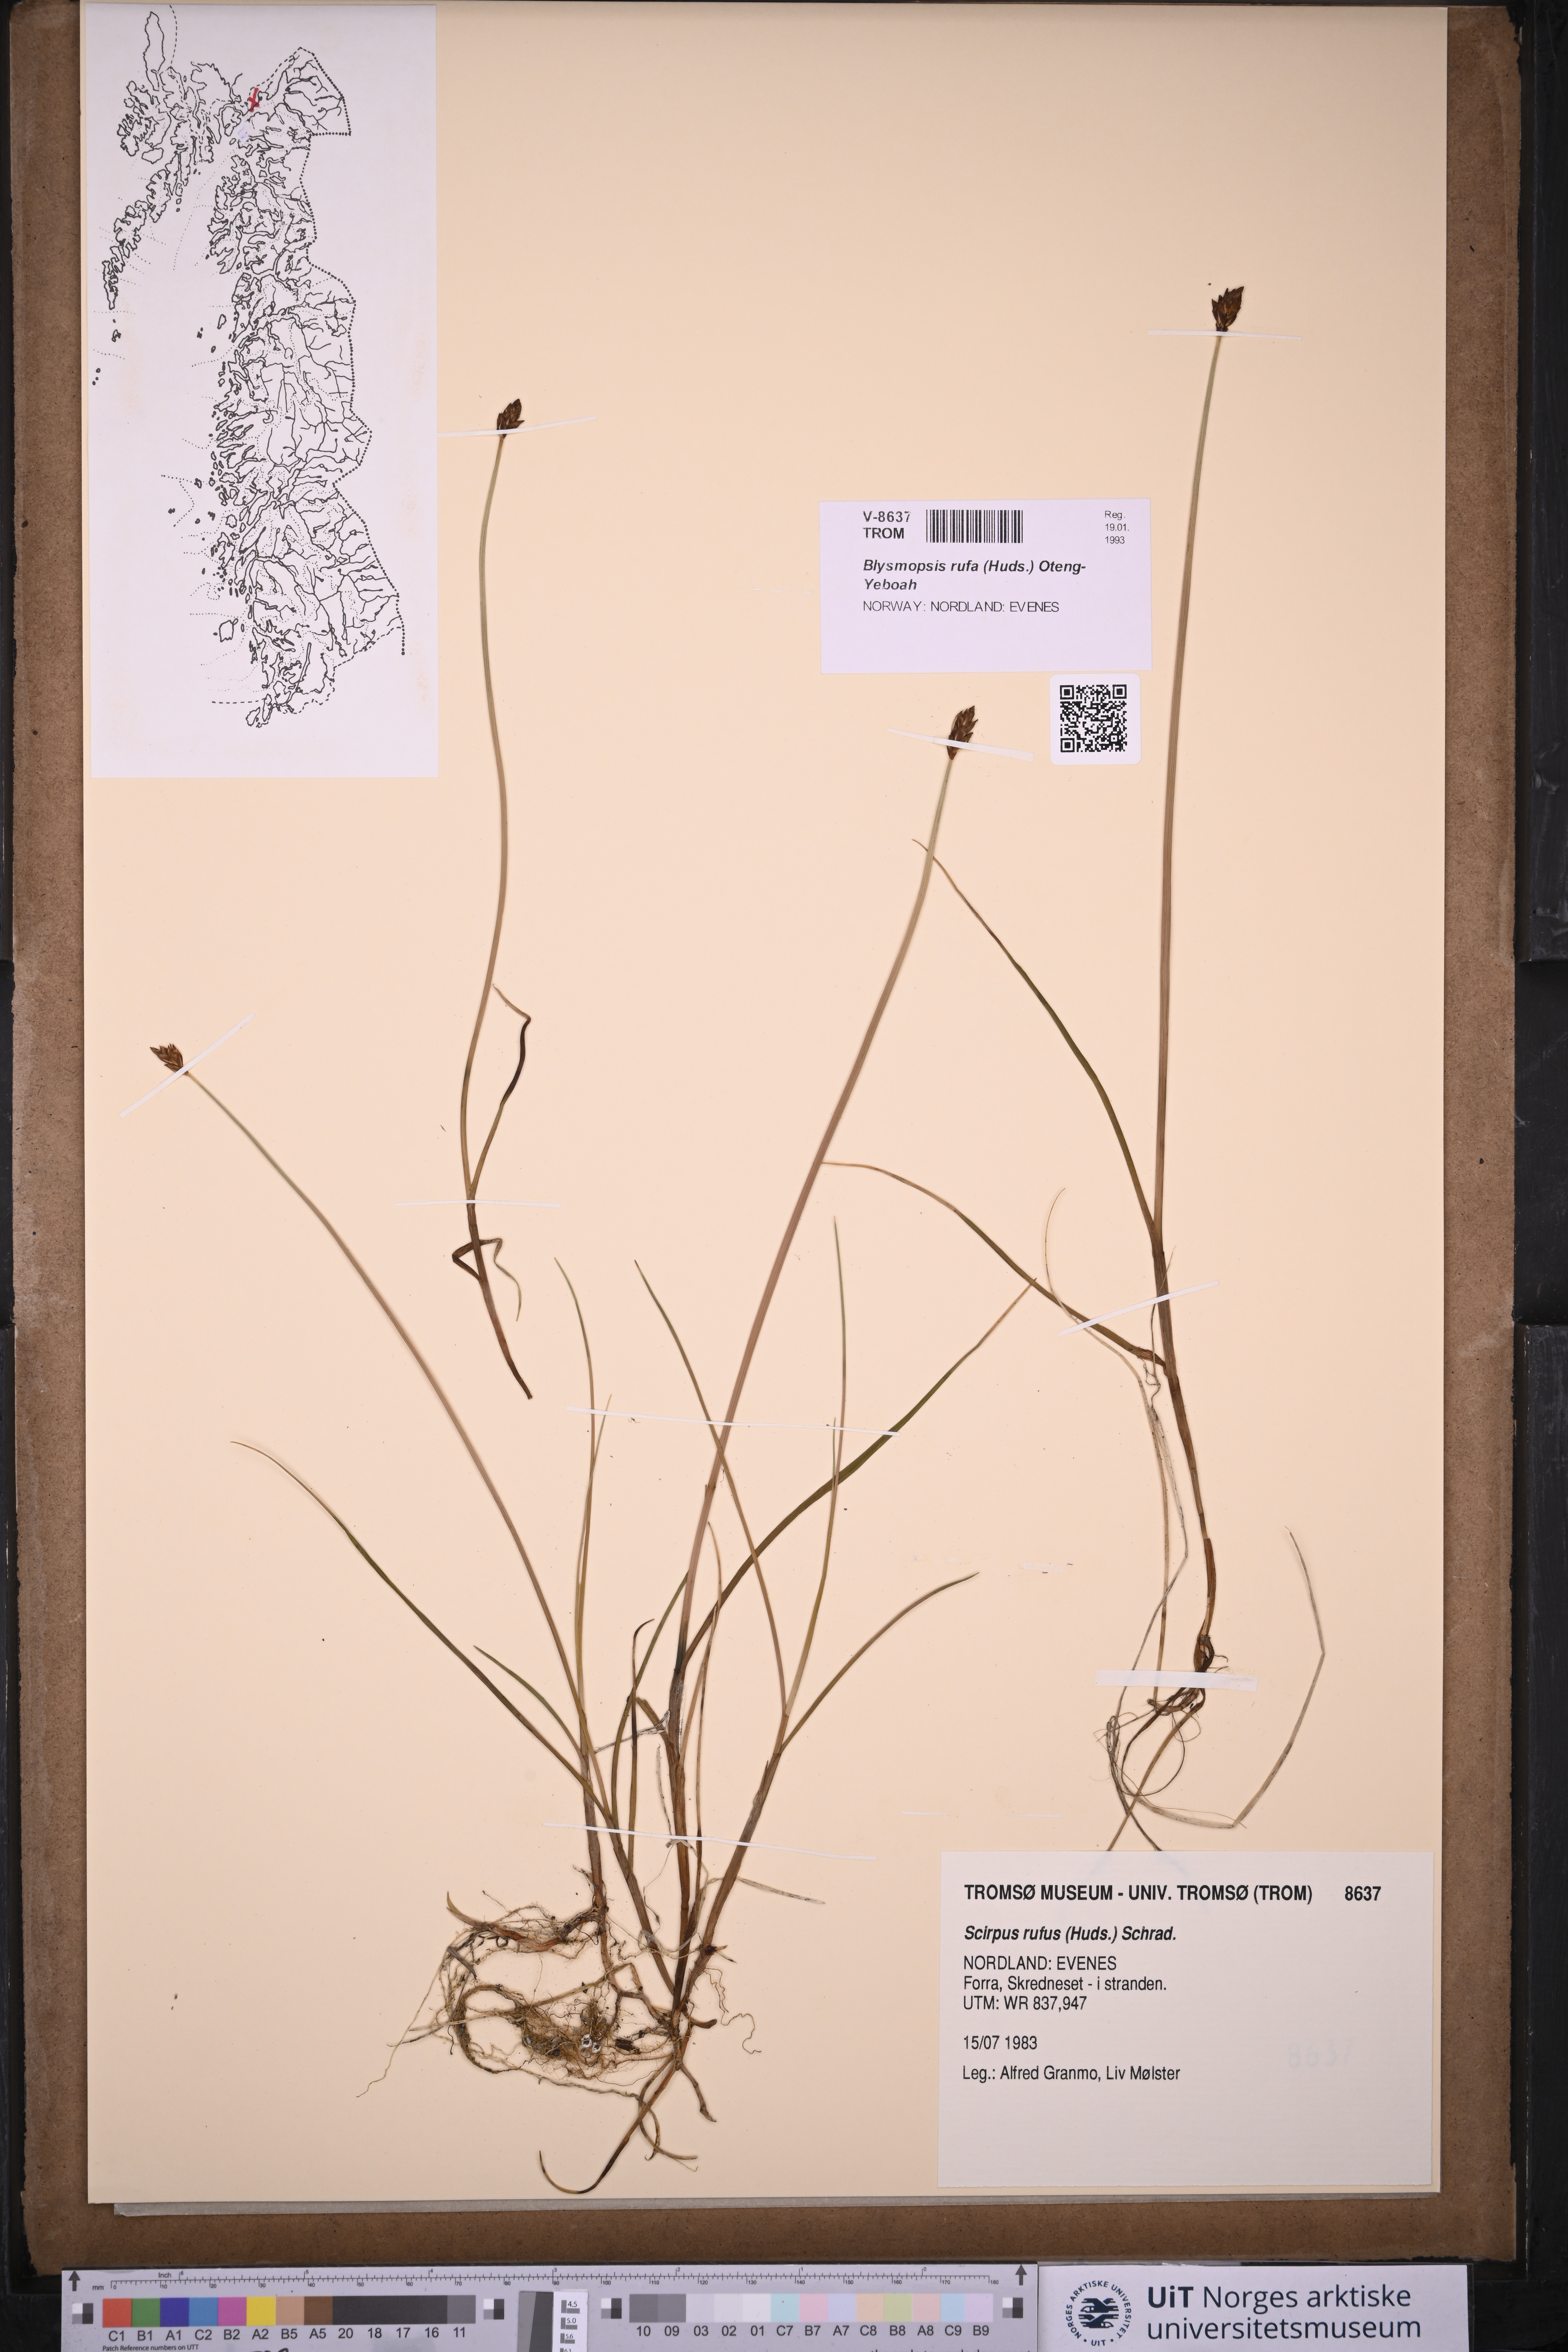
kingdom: Plantae
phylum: Tracheophyta
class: Liliopsida
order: Poales
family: Cyperaceae
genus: Blysmus
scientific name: Blysmus rufus
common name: Saltmarsh flat-sedge
